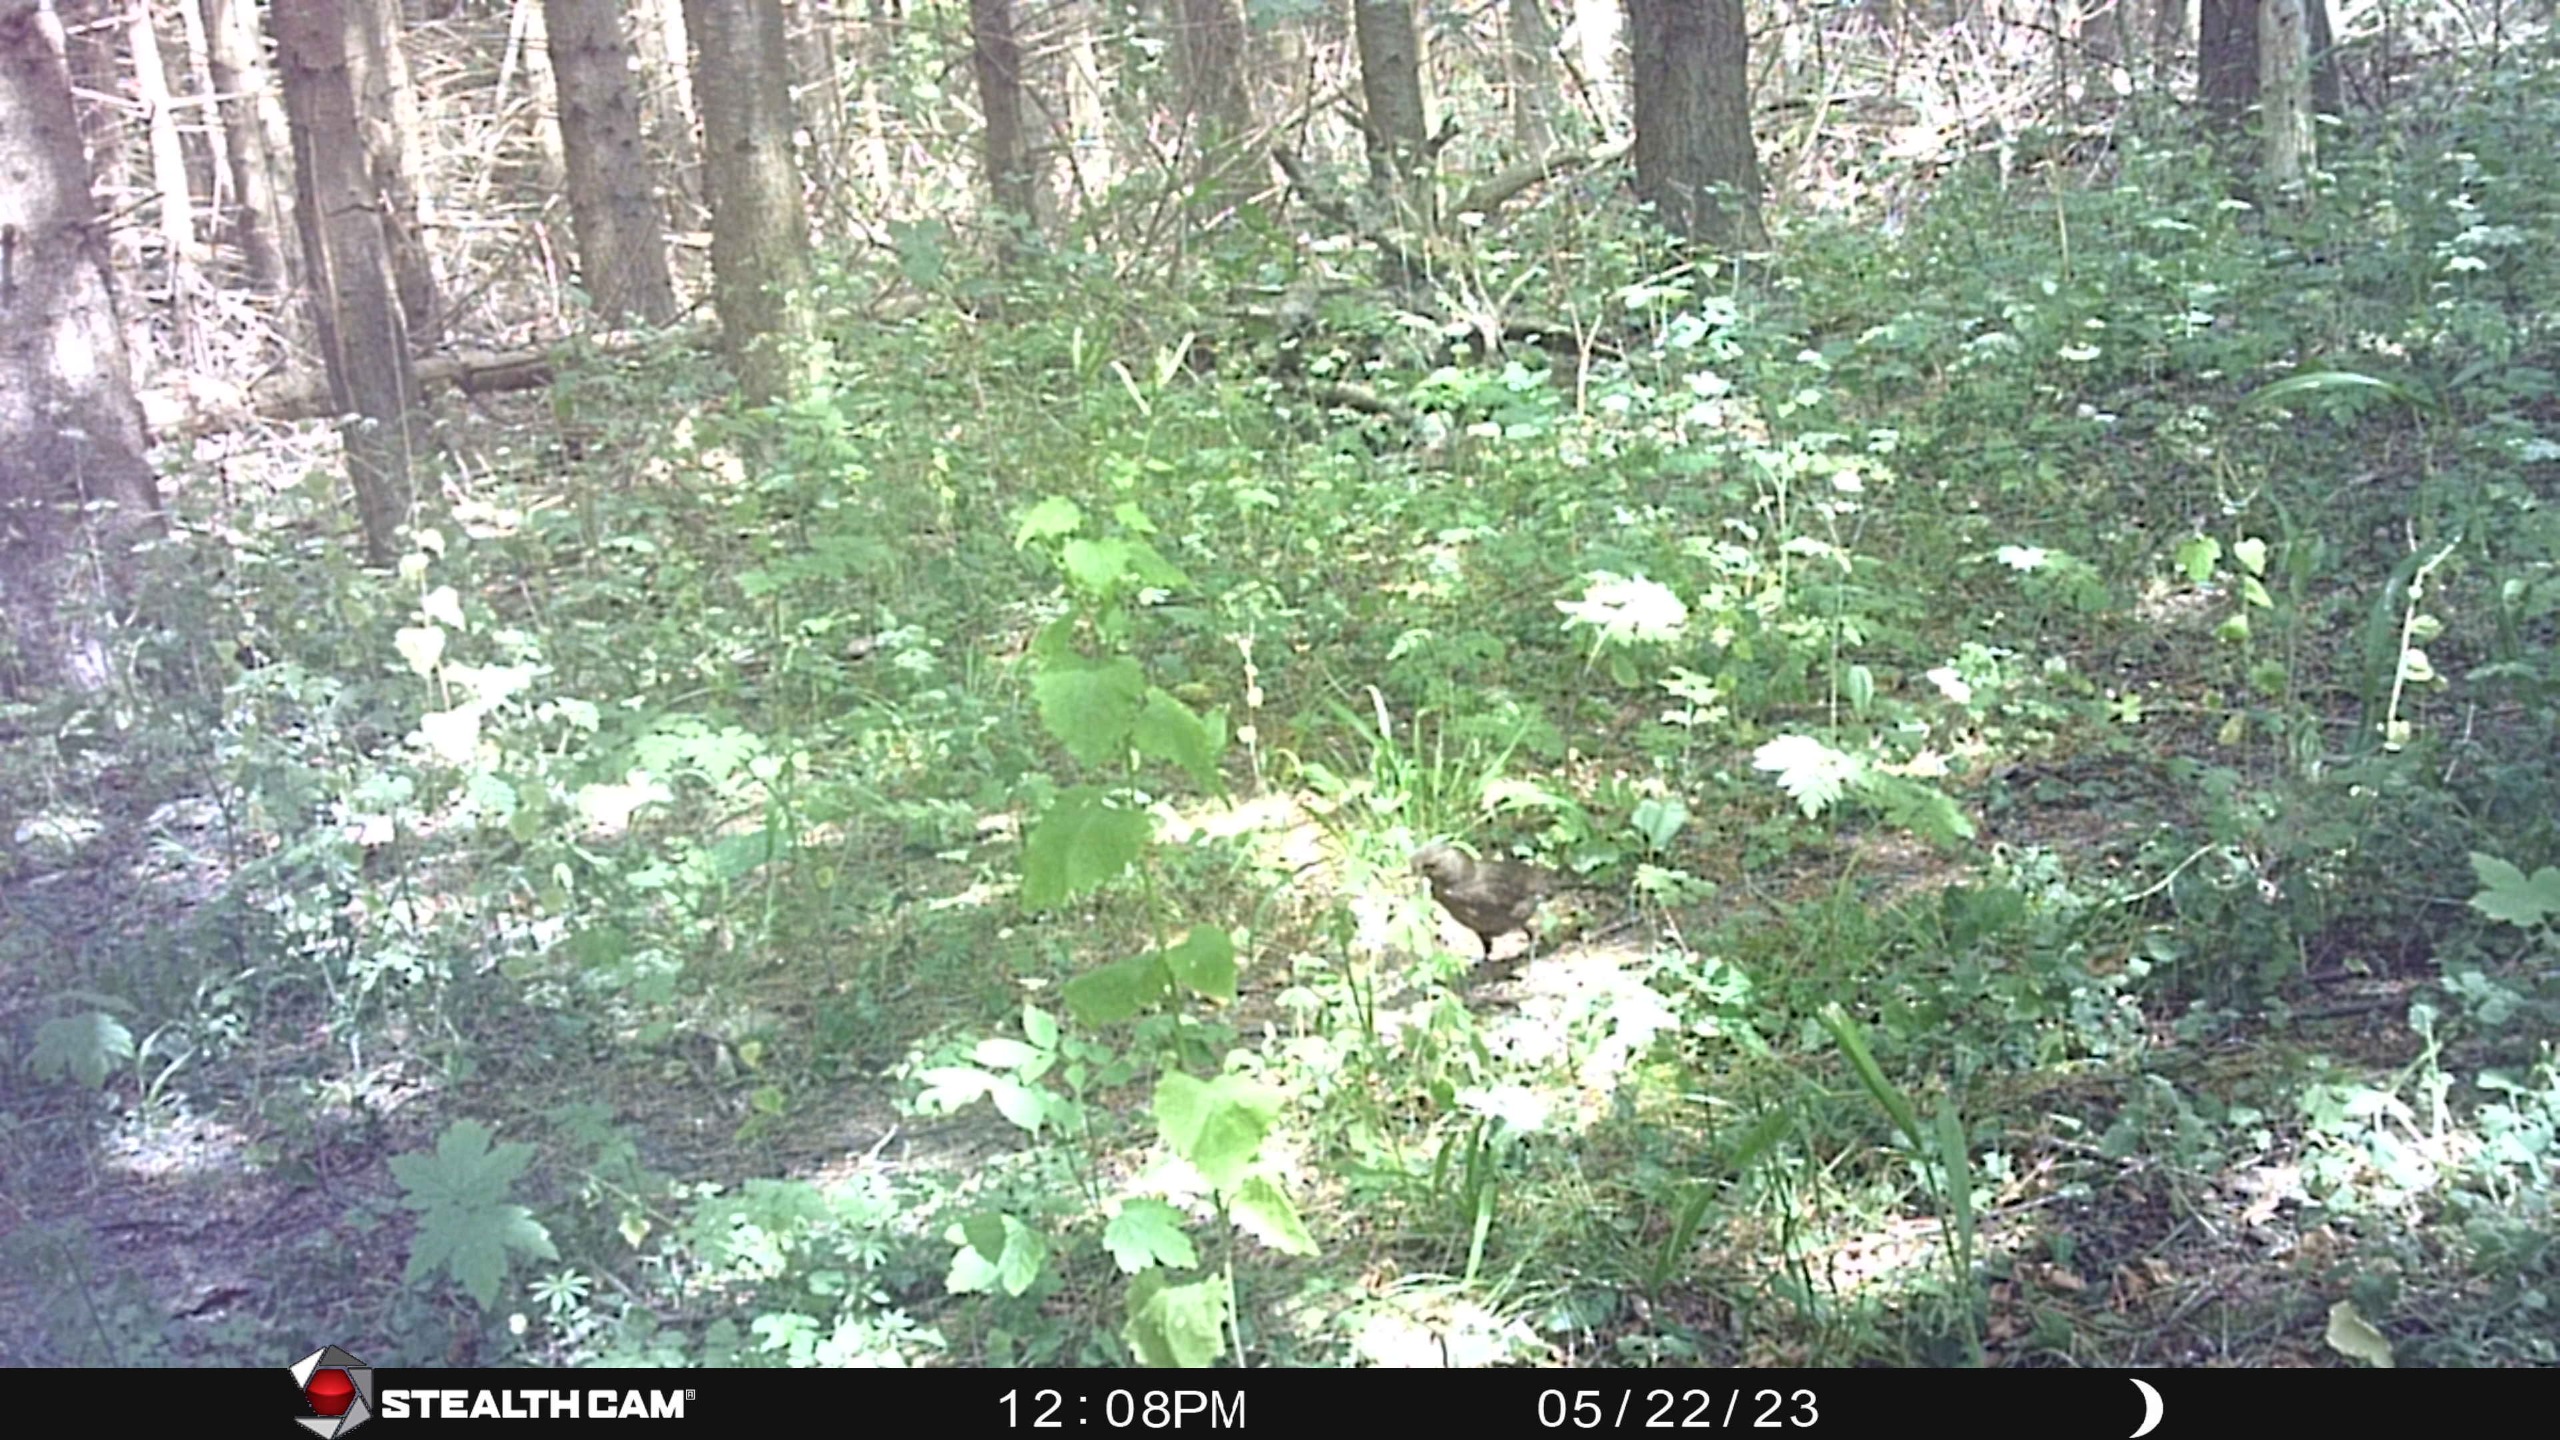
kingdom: Animalia
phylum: Chordata
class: Aves
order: Passeriformes
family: Turdidae
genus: Turdus
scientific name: Turdus merula
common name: Solsort
